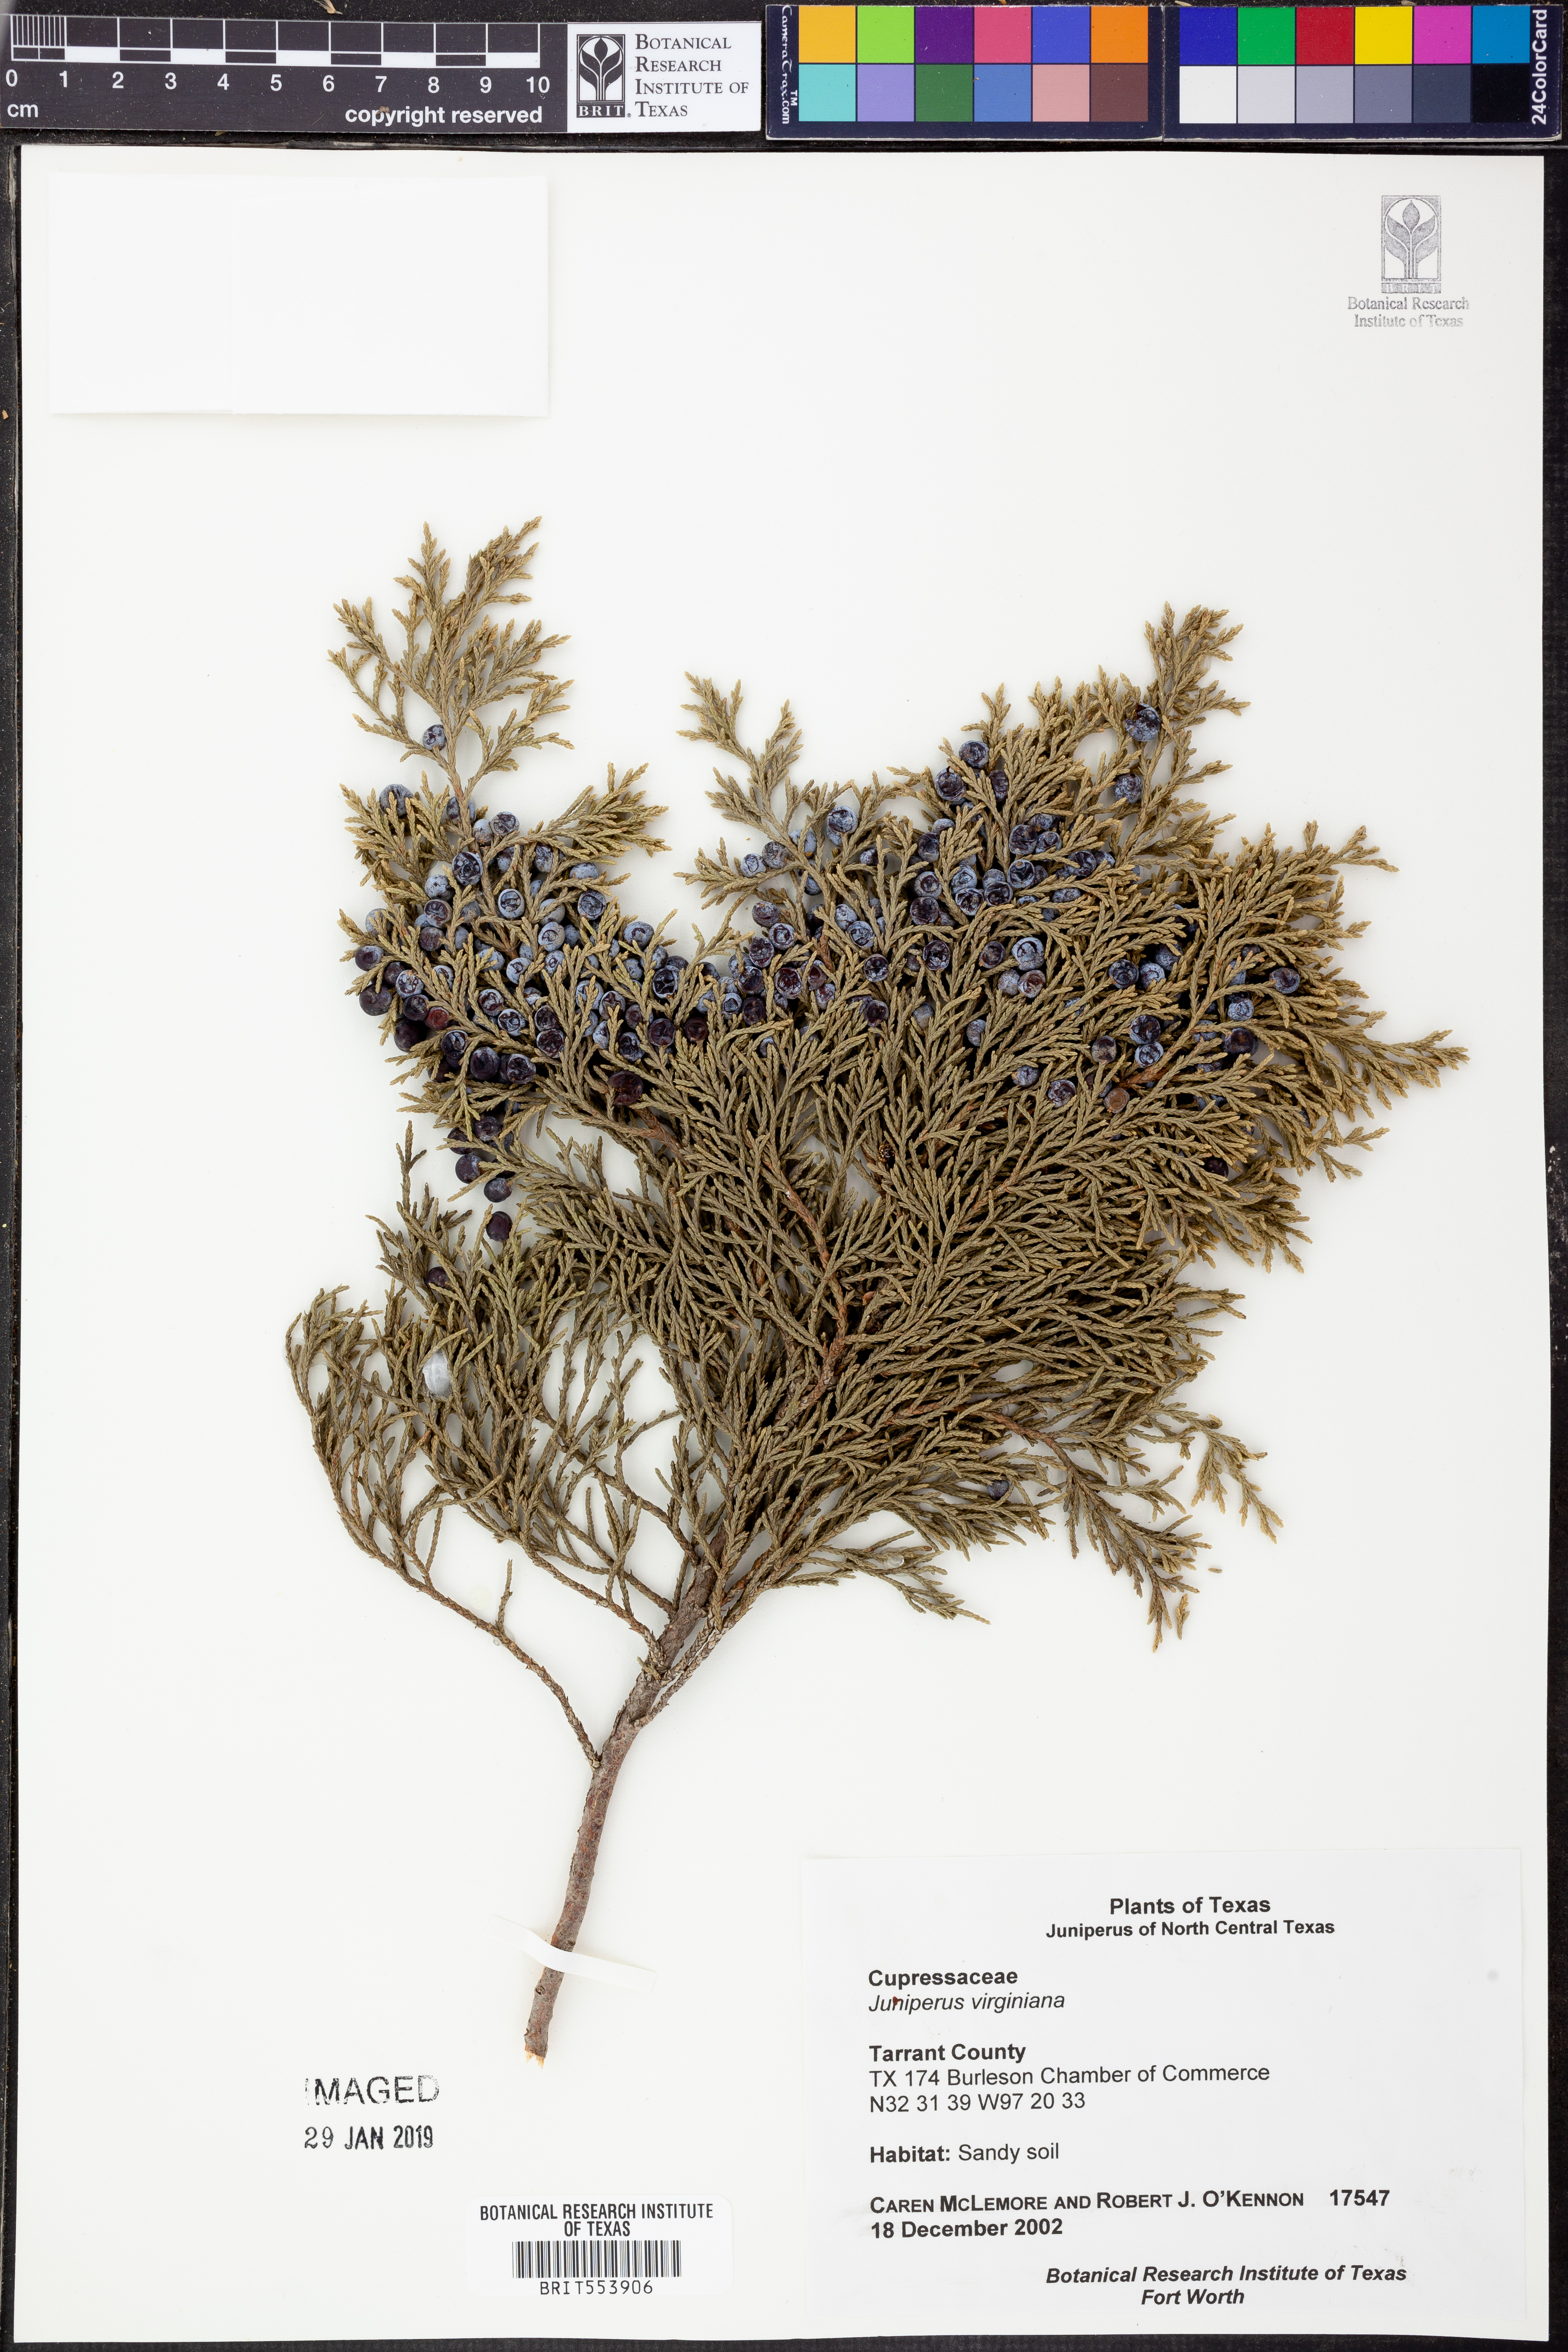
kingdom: Plantae
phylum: Tracheophyta
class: Pinopsida
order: Pinales
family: Cupressaceae
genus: Juniperus
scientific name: Juniperus virginiana
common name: Red juniper
